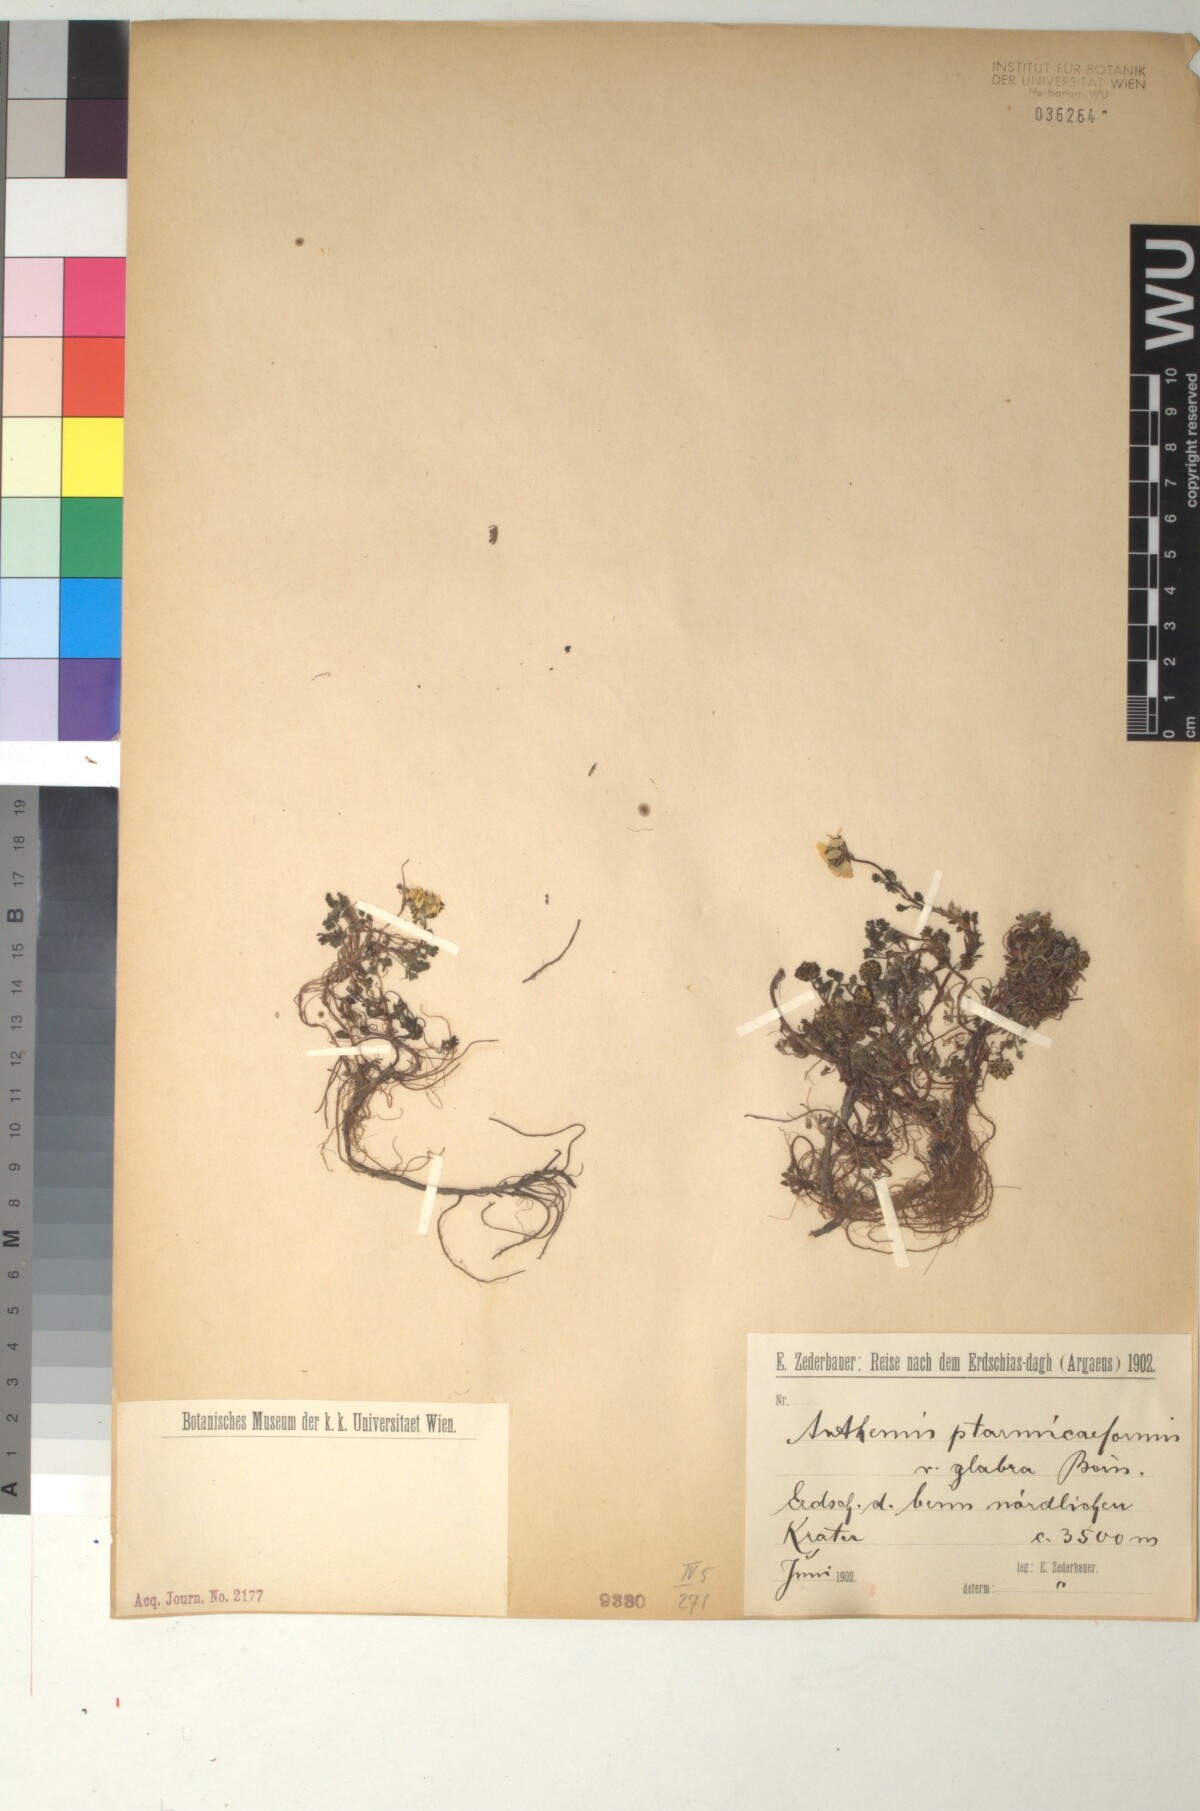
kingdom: Plantae
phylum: Tracheophyta
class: Magnoliopsida
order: Asterales
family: Asteraceae
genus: Anthemis
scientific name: Anthemis cretica
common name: Mountain dog-daisy
